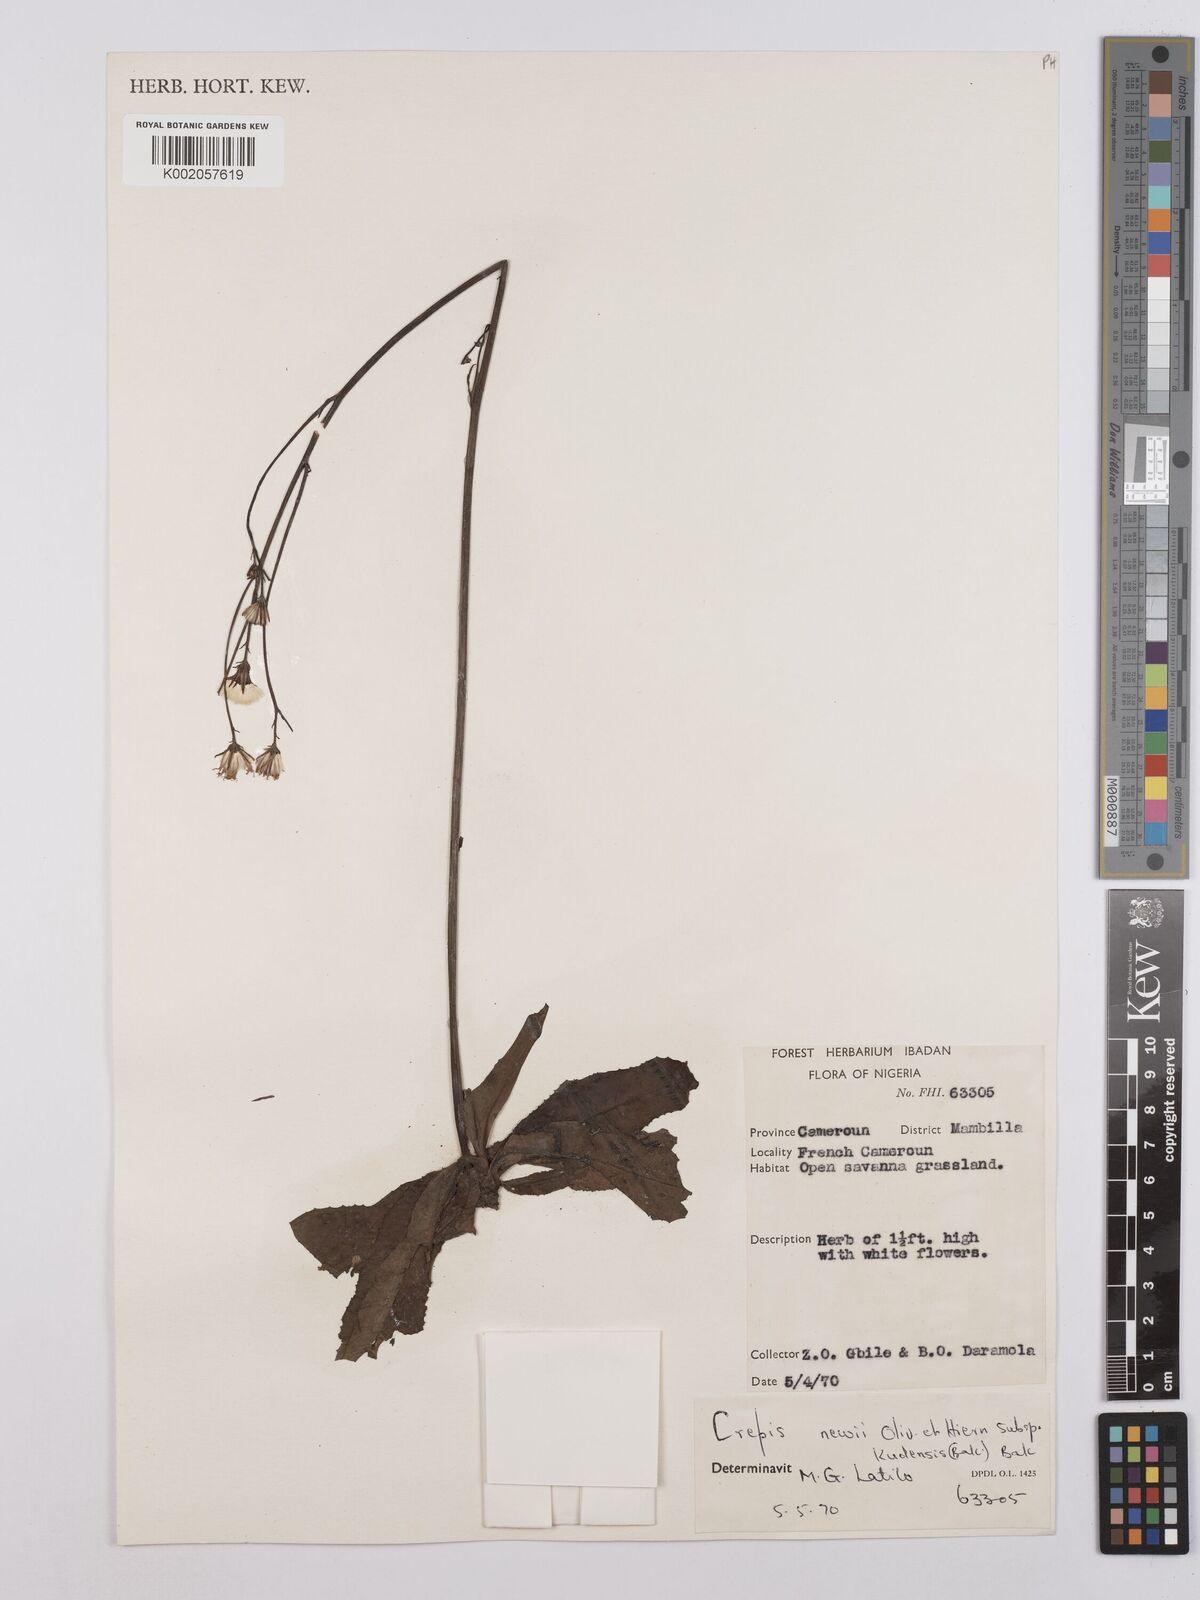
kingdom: Plantae
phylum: Tracheophyta
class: Magnoliopsida
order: Asterales
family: Asteraceae
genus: Crepis
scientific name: Crepis hypochoeridea
